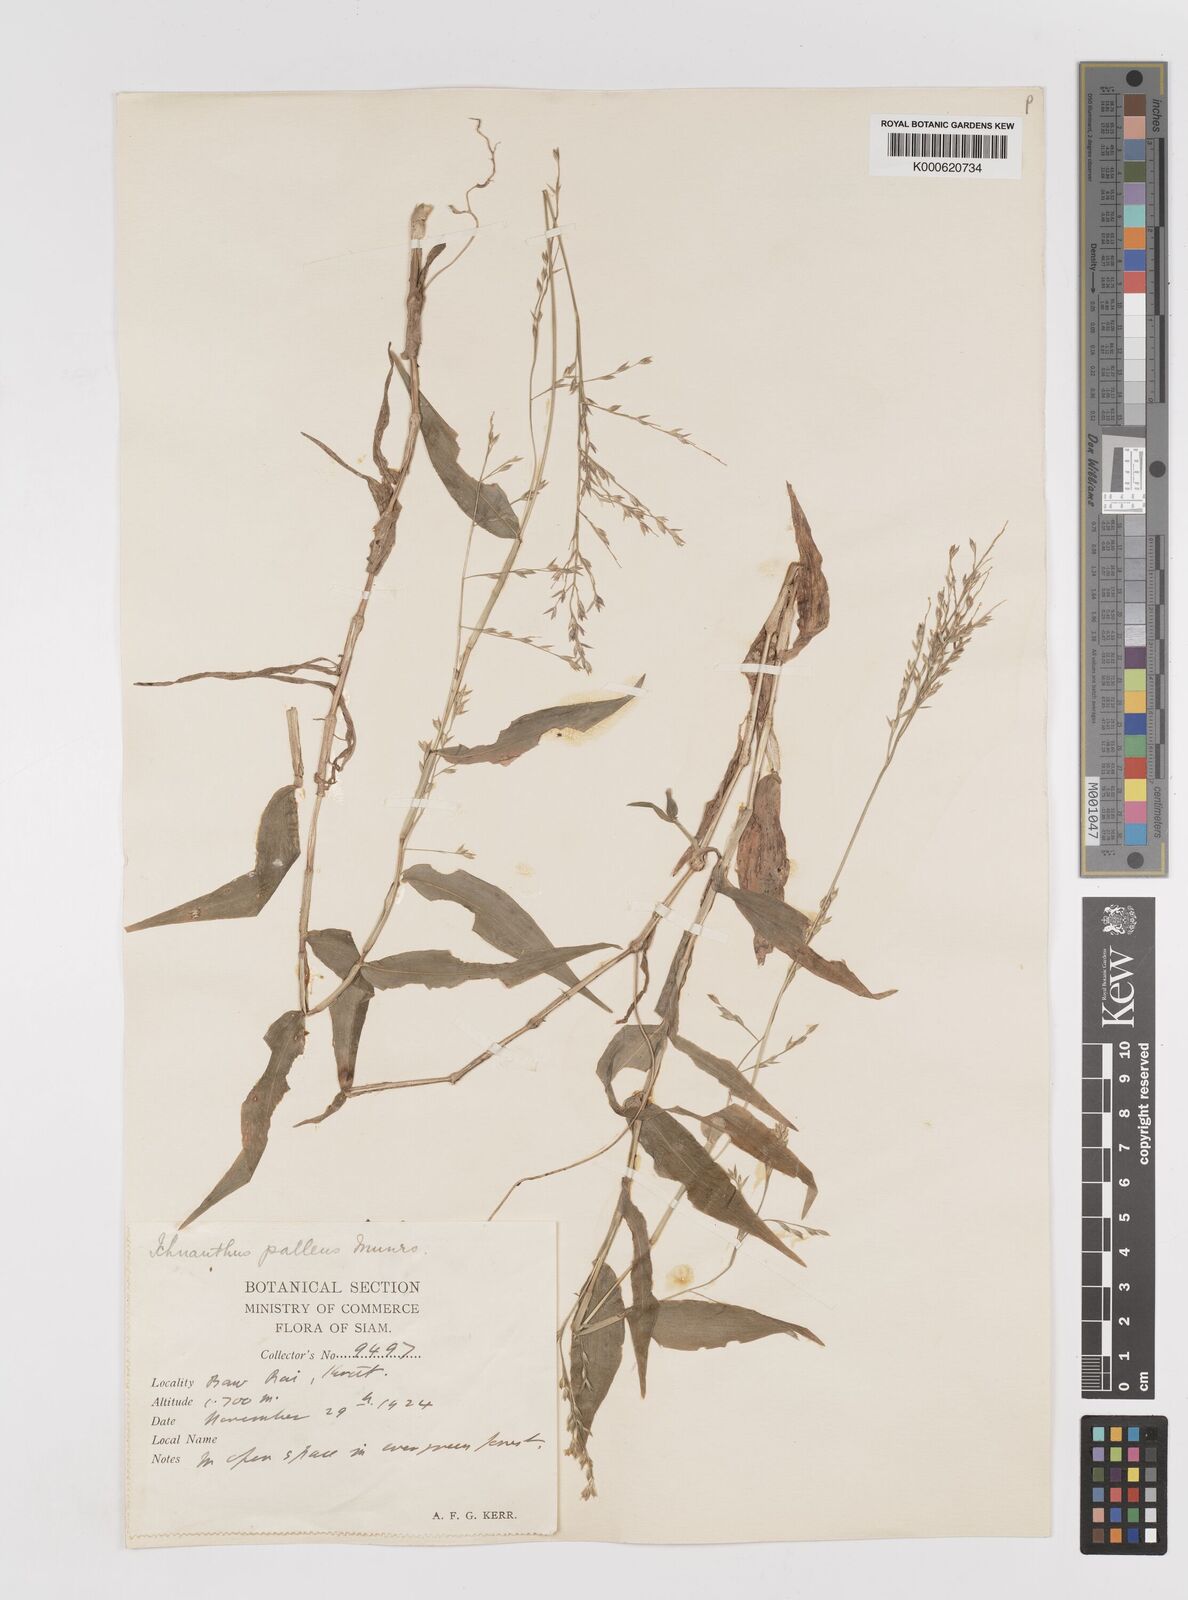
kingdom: Plantae
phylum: Tracheophyta
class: Liliopsida
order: Poales
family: Poaceae
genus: Ichnanthus
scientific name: Ichnanthus
